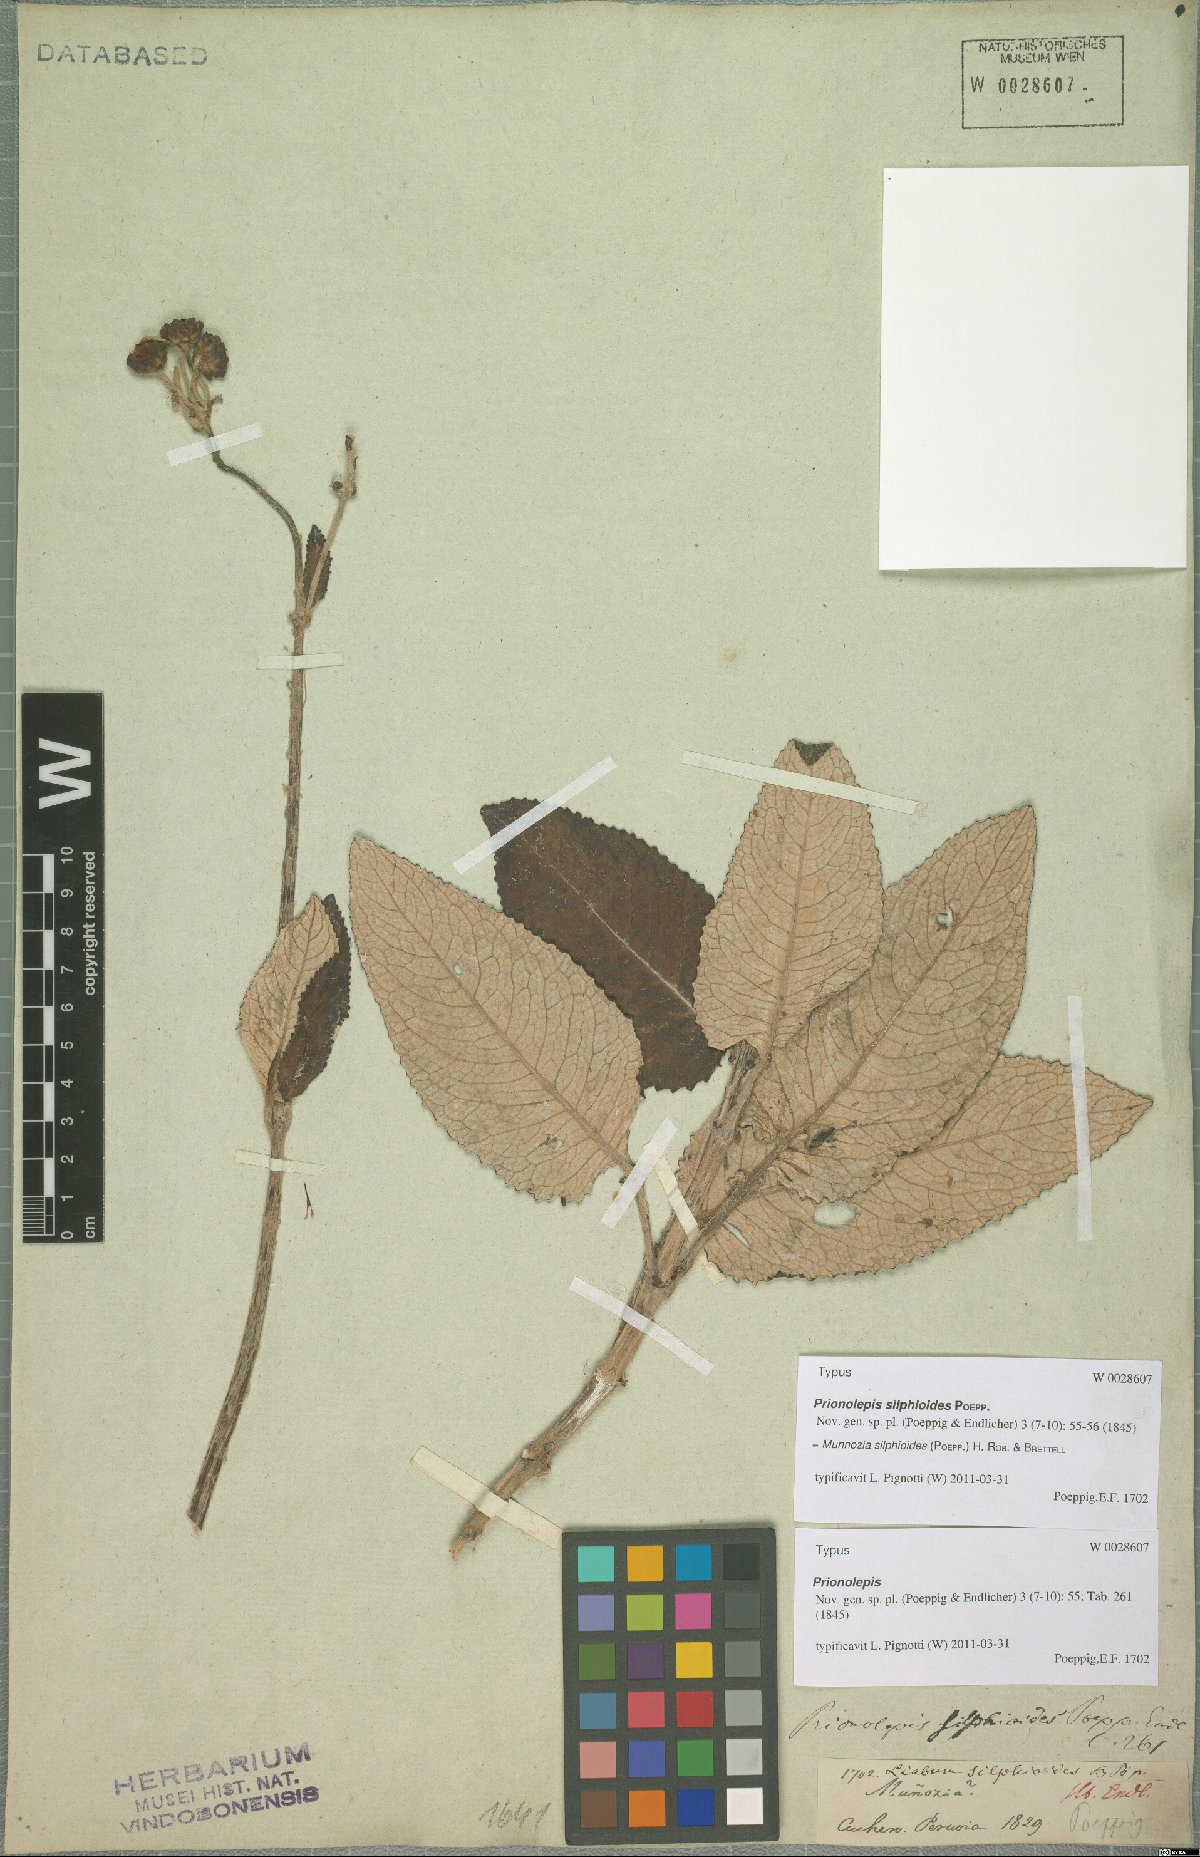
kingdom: Plantae
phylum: Tracheophyta
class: Magnoliopsida
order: Asterales
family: Asteraceae
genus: Munnozia
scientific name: Munnozia silphioides
